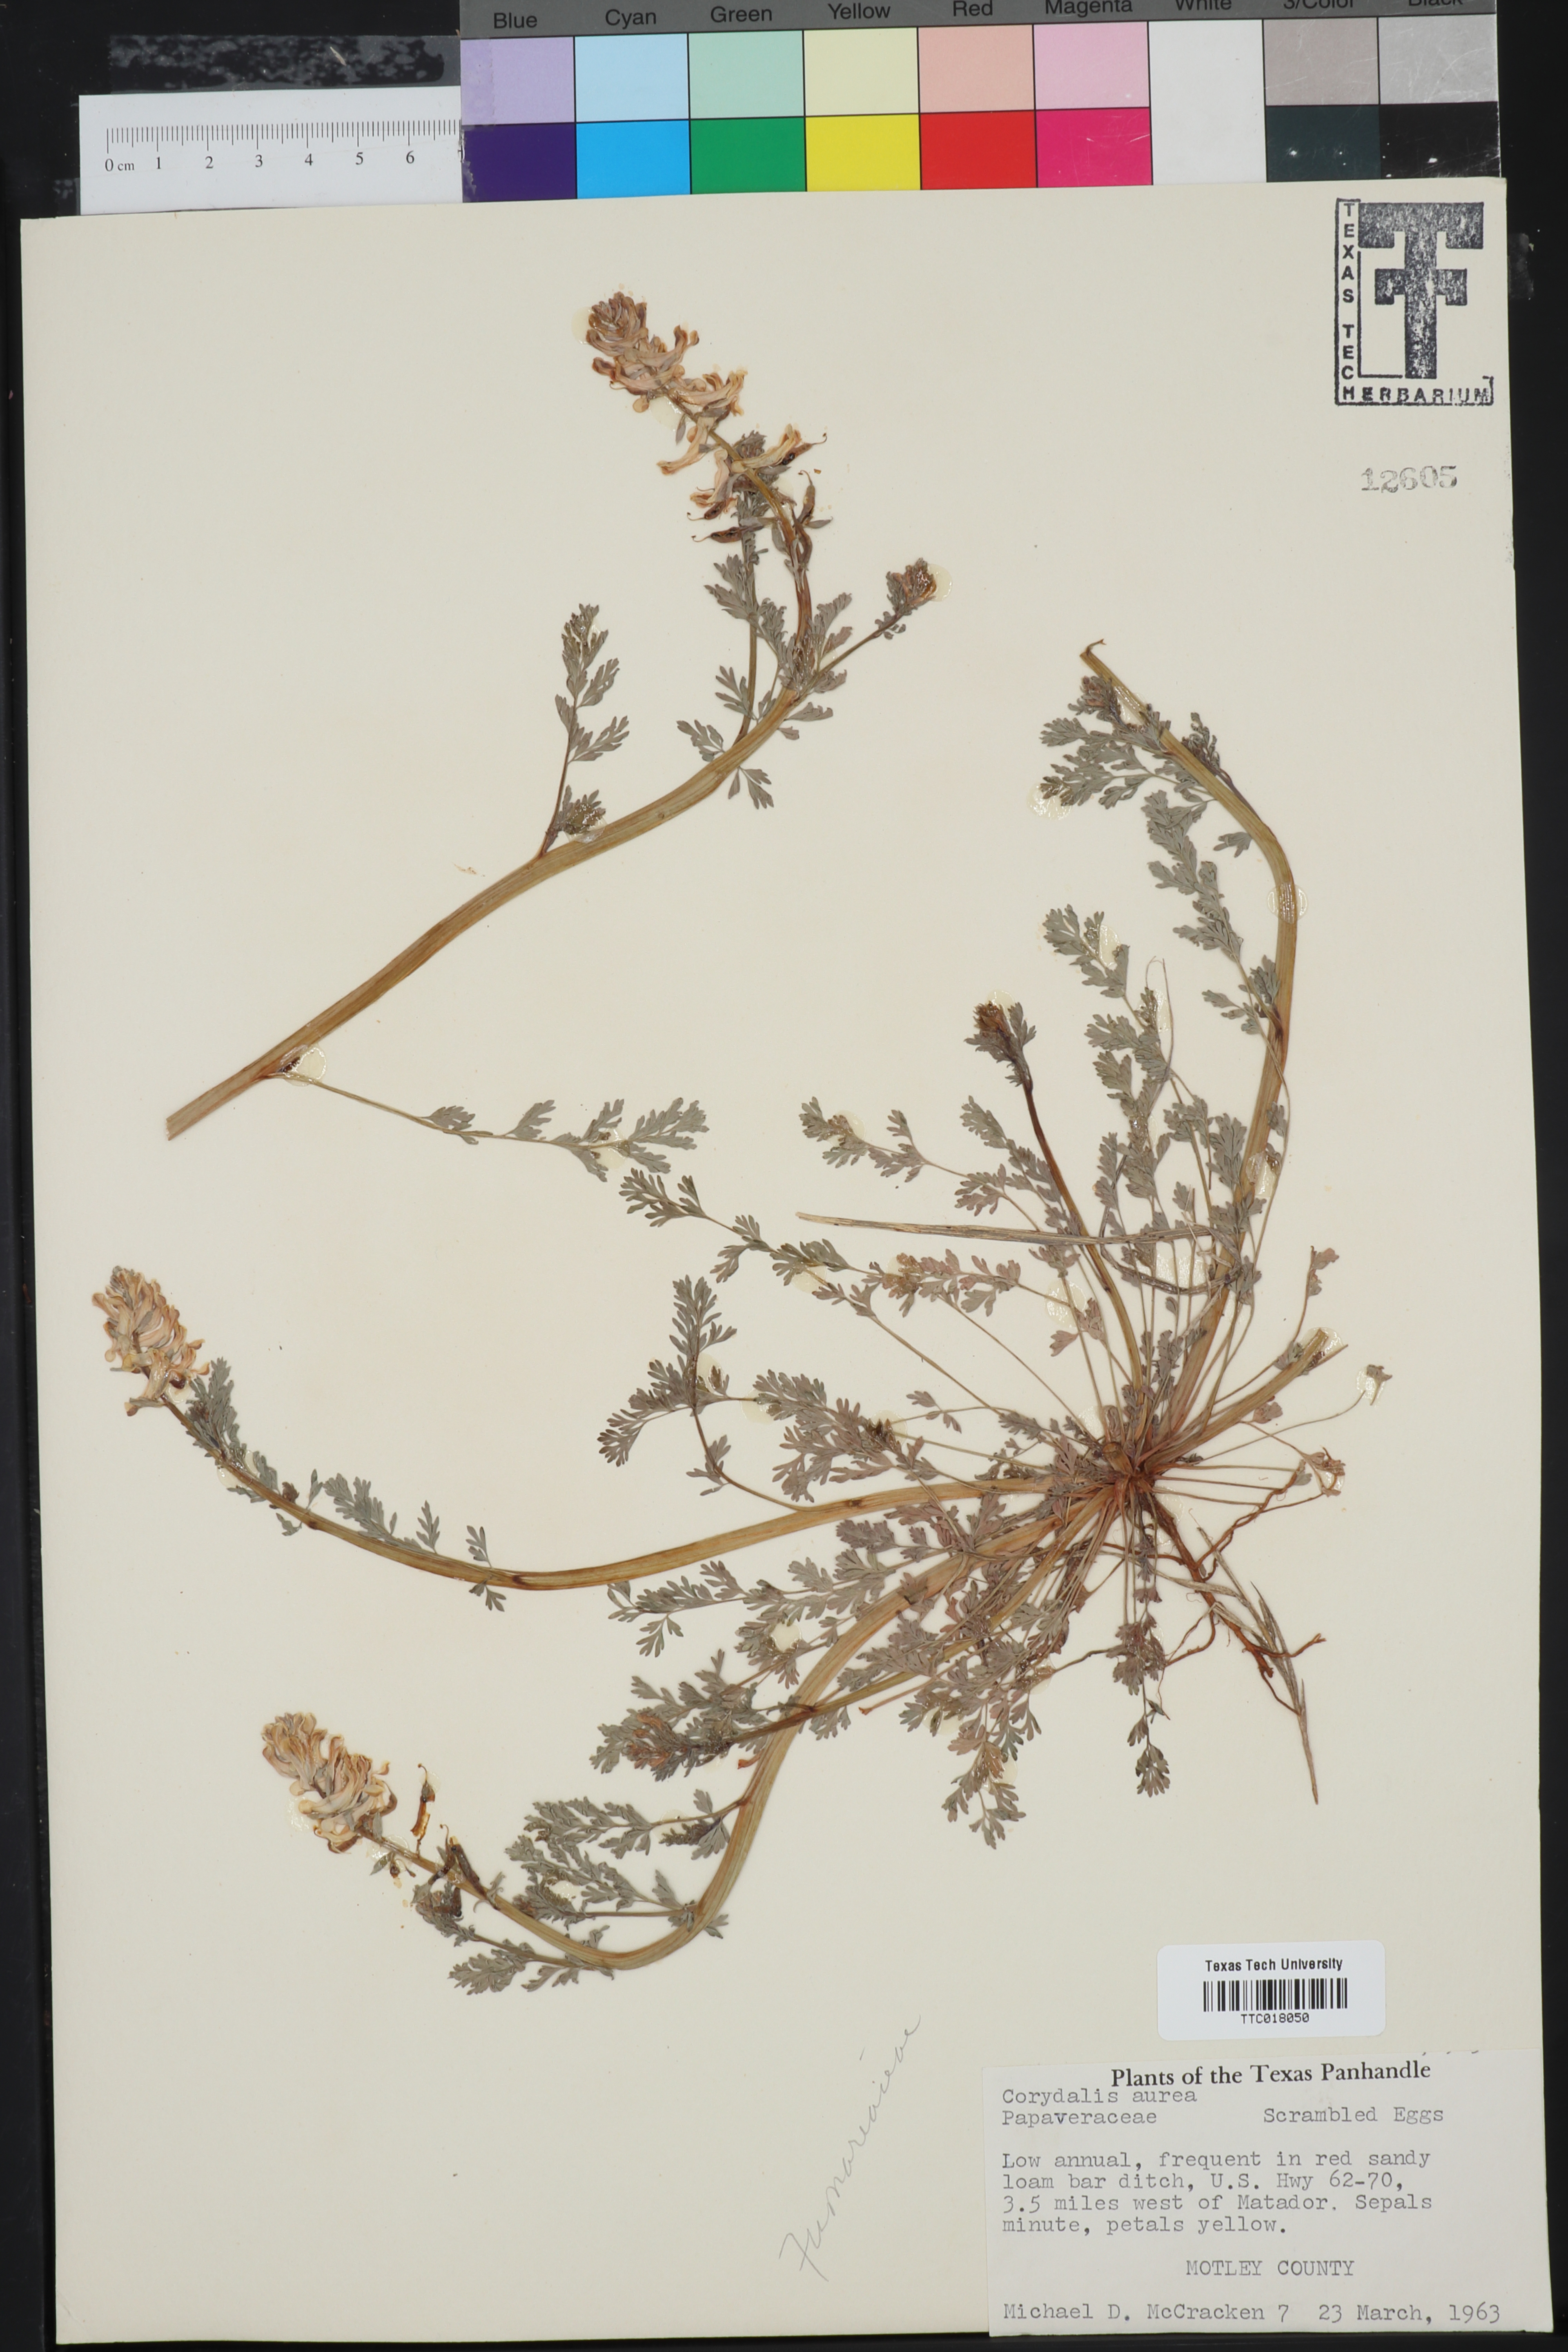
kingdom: Plantae
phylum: Tracheophyta
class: Magnoliopsida
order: Ranunculales
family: Papaveraceae
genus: Corydalis
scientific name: Corydalis aurea
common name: Golden corydalis
